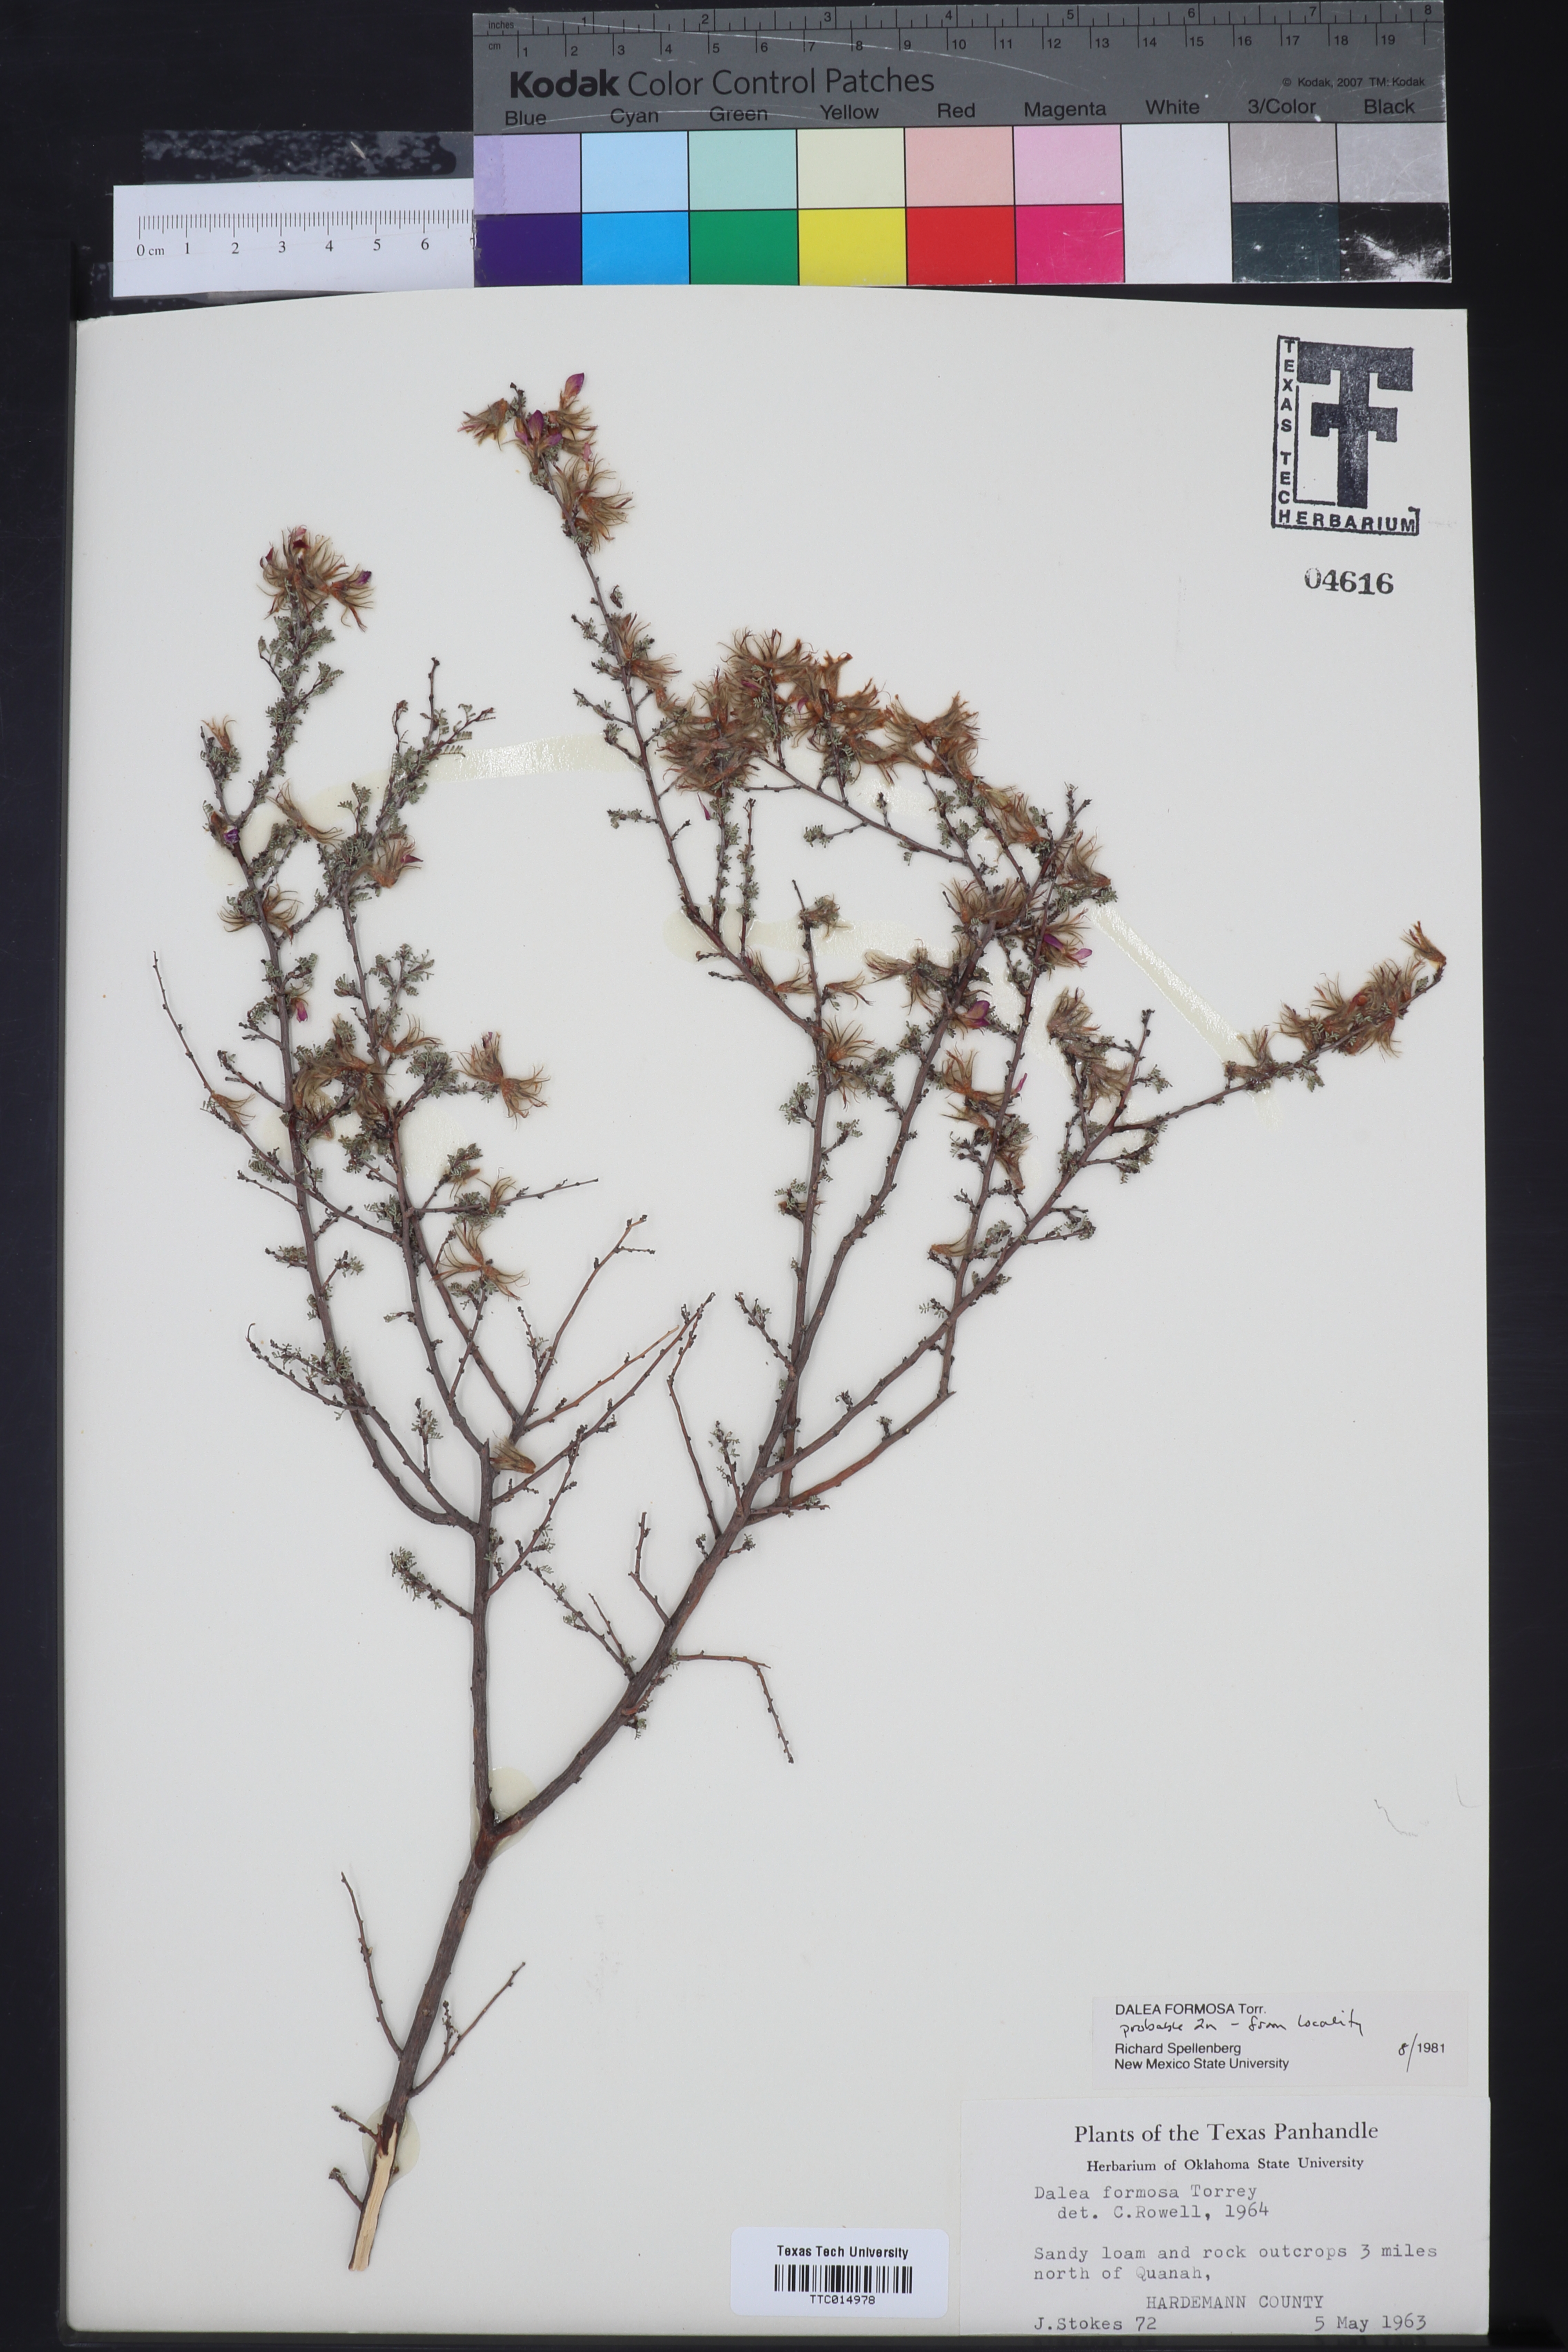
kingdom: Plantae
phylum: Tracheophyta
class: Magnoliopsida
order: Fabales
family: Fabaceae
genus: Dalea
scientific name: Dalea formosa
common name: Feather-plume dalea
